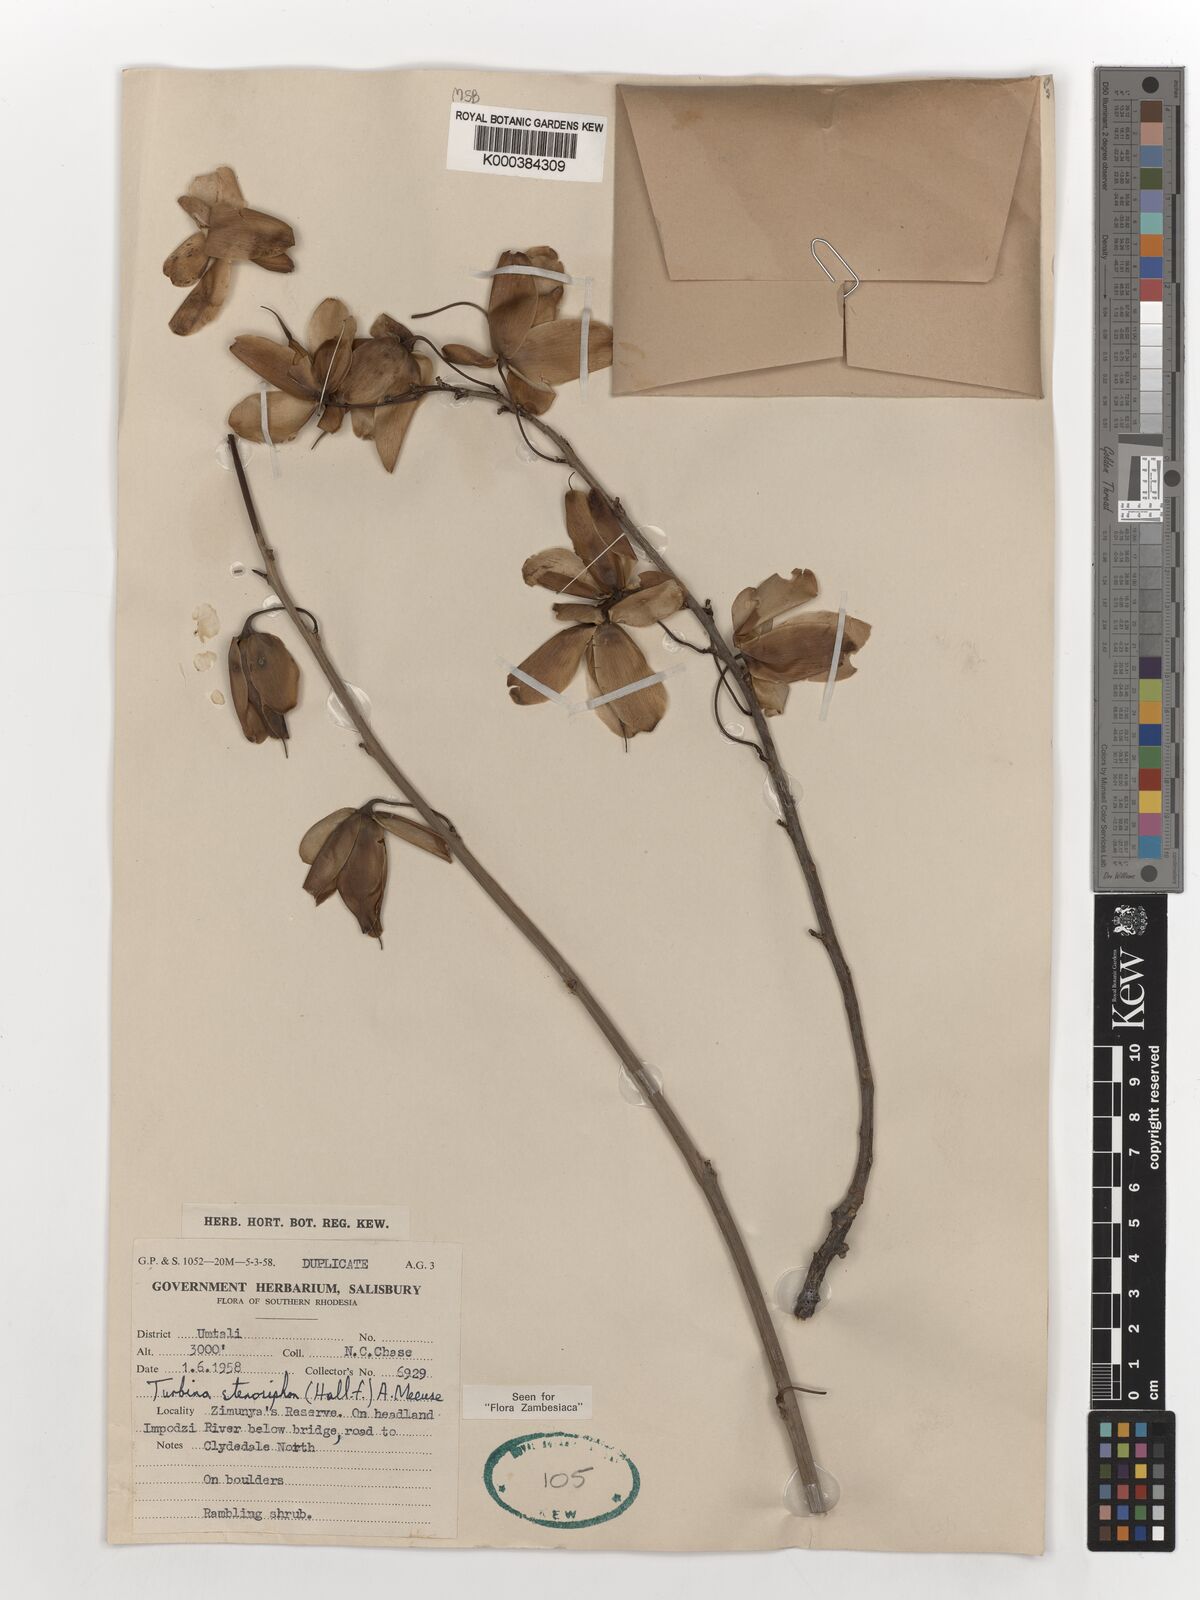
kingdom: Plantae
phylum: Tracheophyta
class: Magnoliopsida
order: Solanales
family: Convolvulaceae
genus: Ipomoea
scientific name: Ipomoea stenosiphon
